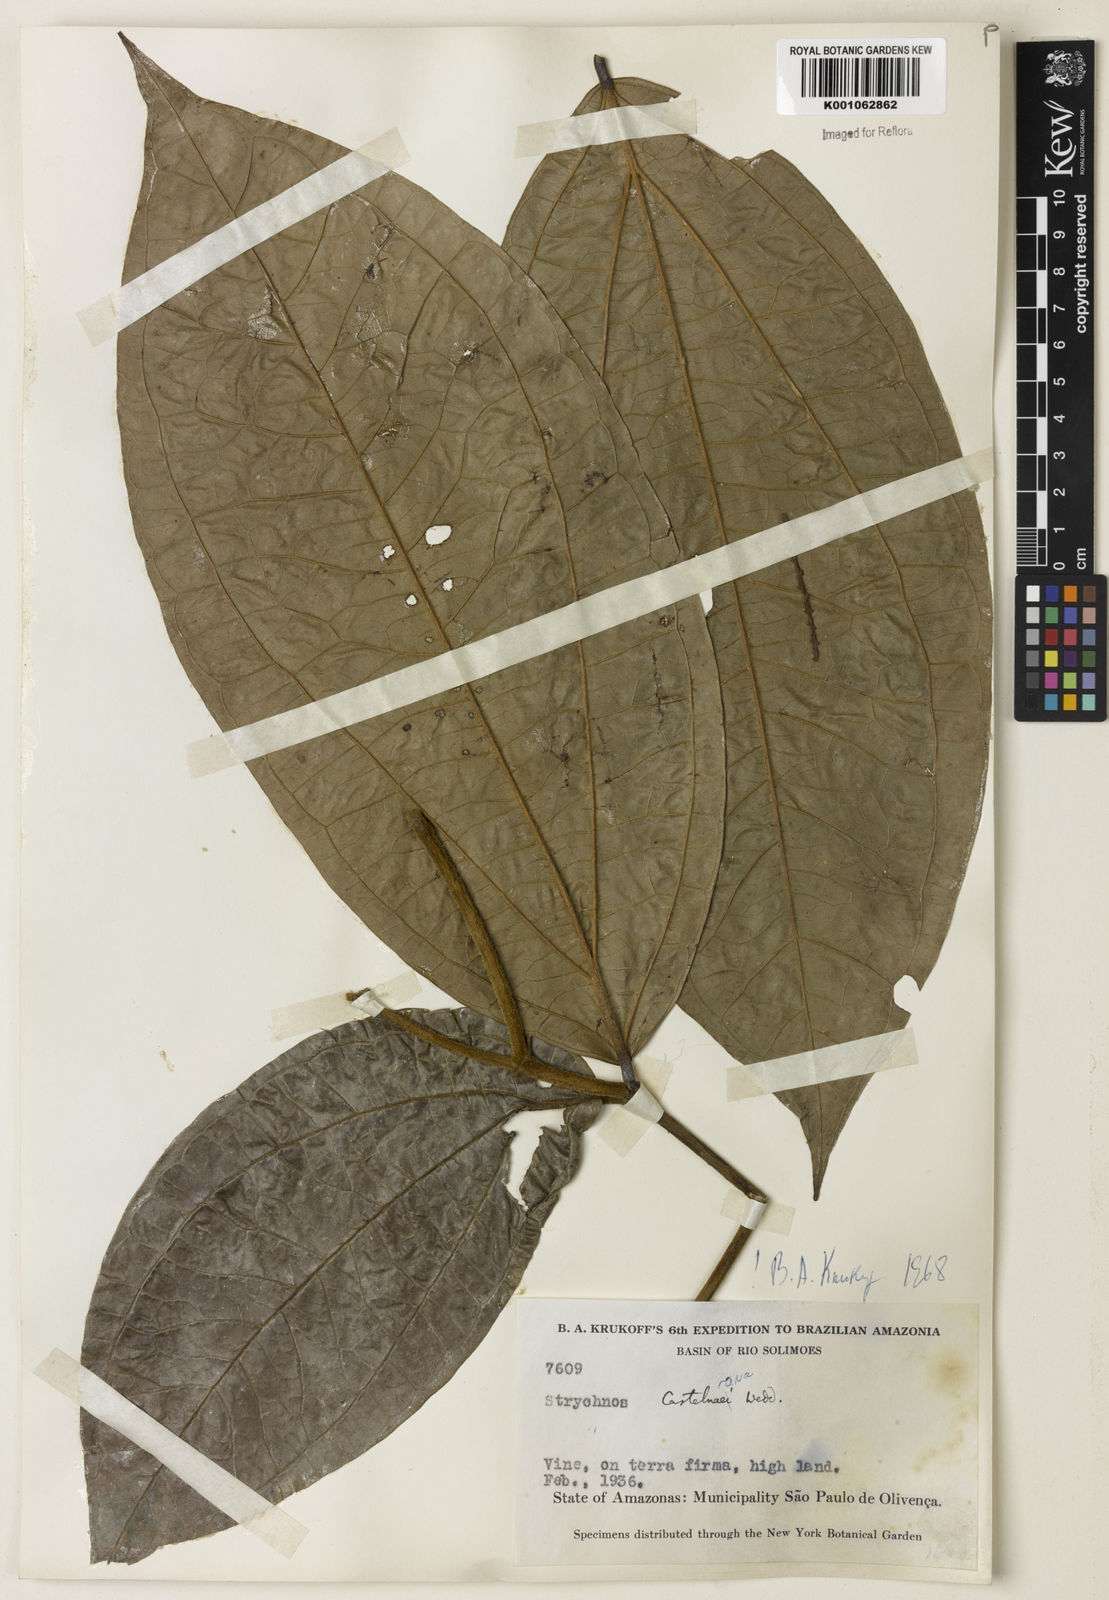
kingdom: Plantae
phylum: Tracheophyta
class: Magnoliopsida
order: Gentianales
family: Loganiaceae
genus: Strychnos
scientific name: Strychnos
